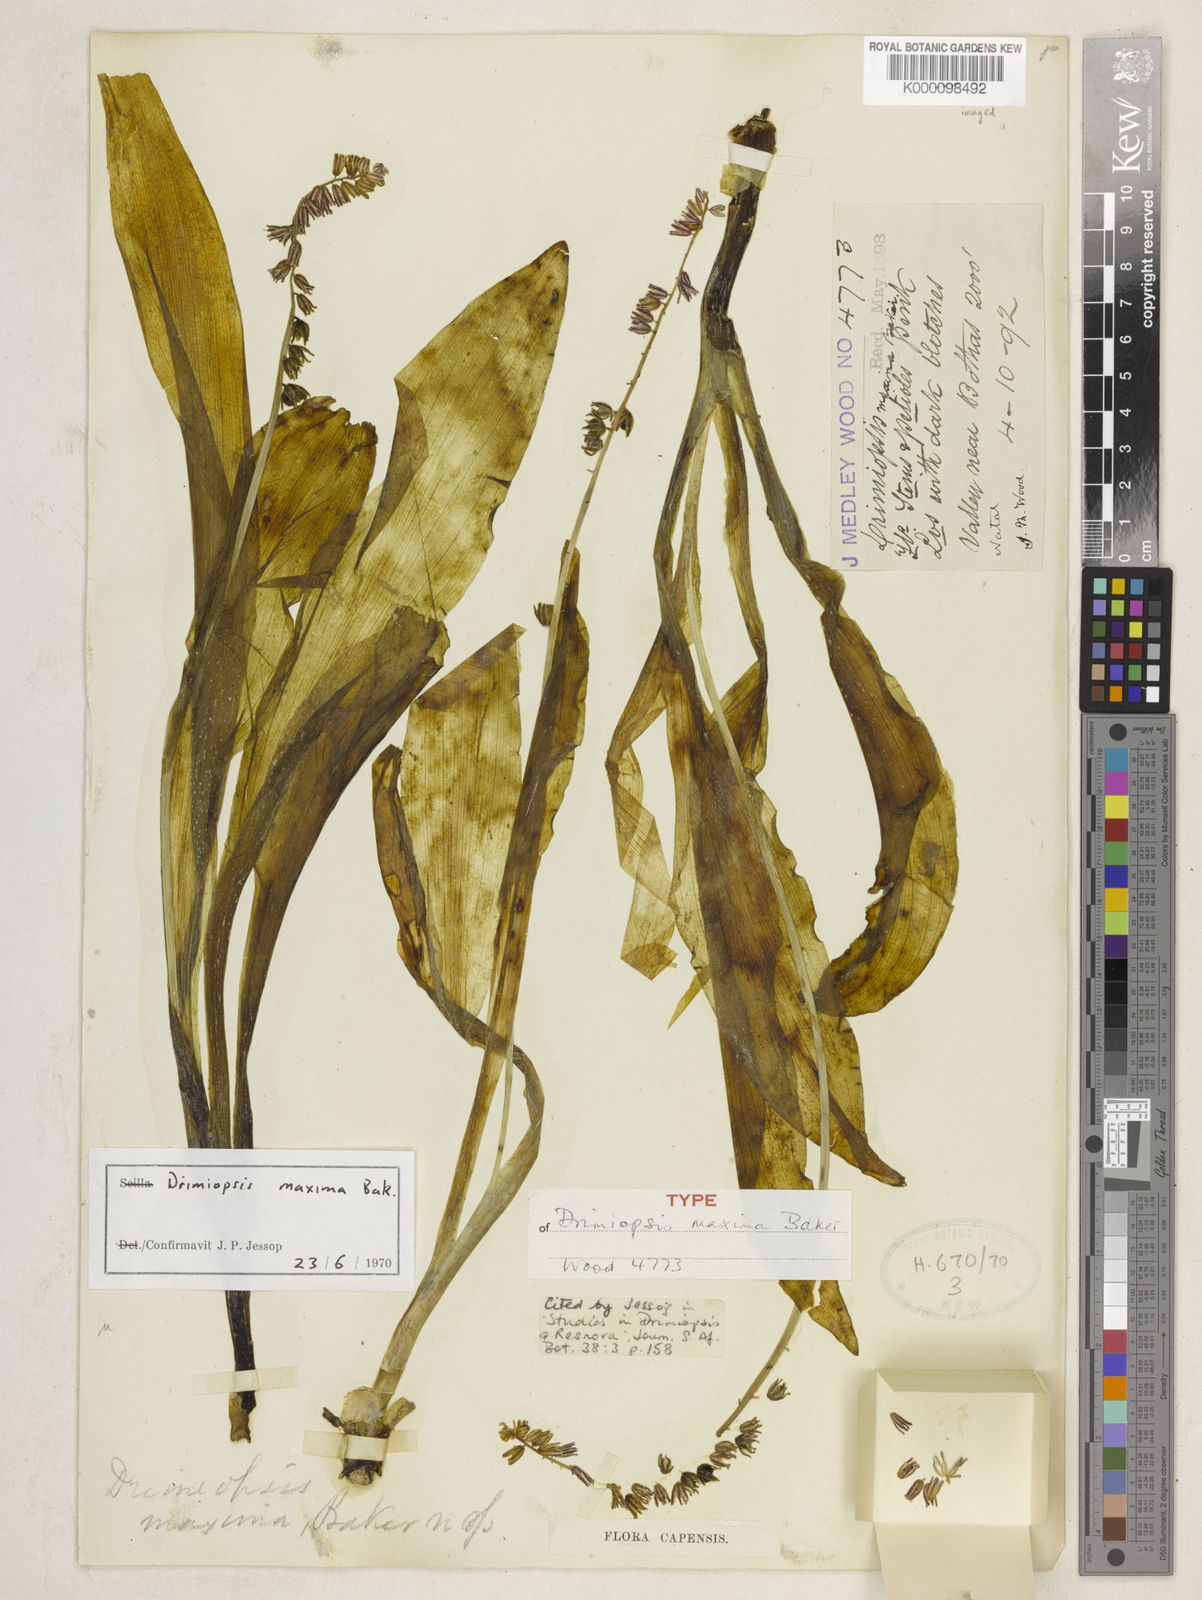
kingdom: Plantae
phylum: Tracheophyta
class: Liliopsida
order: Asparagales
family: Asparagaceae
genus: Resnova
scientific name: Resnova humifusa
